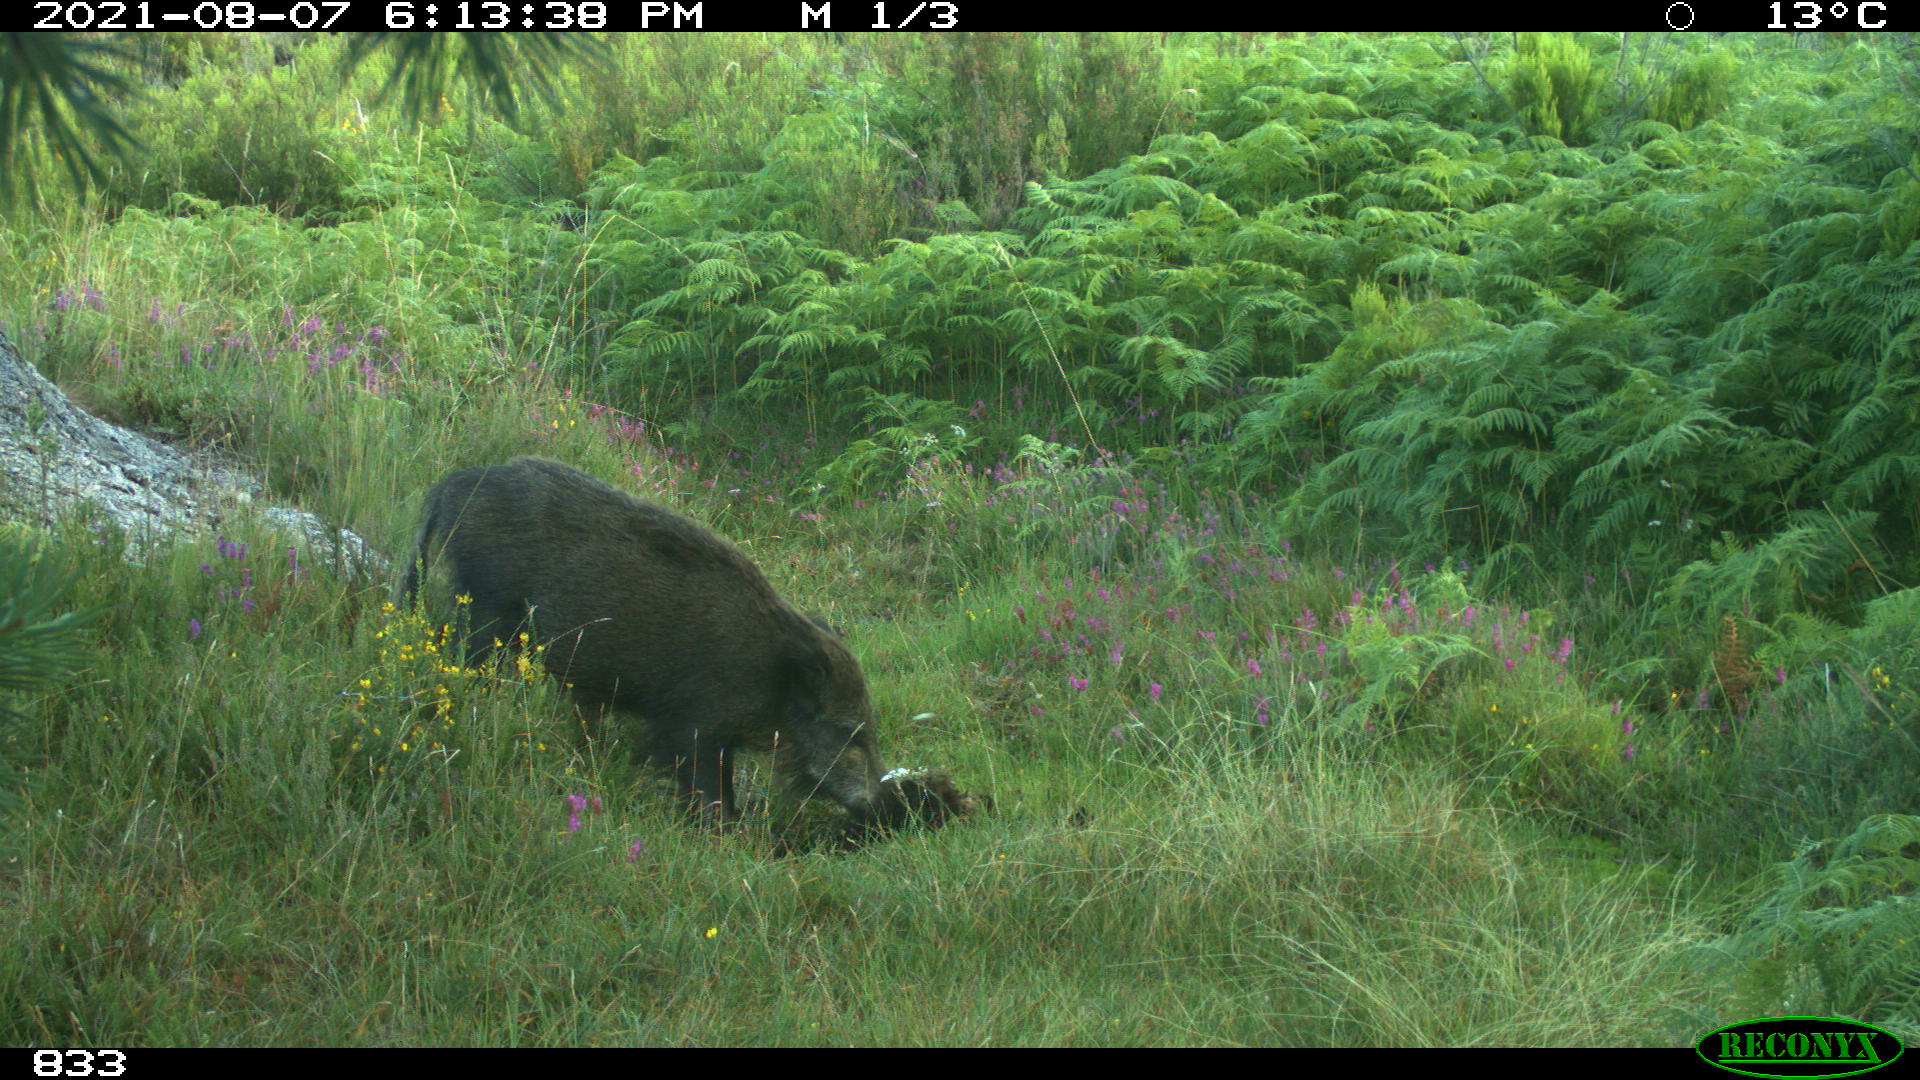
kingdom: Animalia
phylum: Chordata
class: Mammalia
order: Artiodactyla
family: Suidae
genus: Sus
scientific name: Sus scrofa
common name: Wild boar
